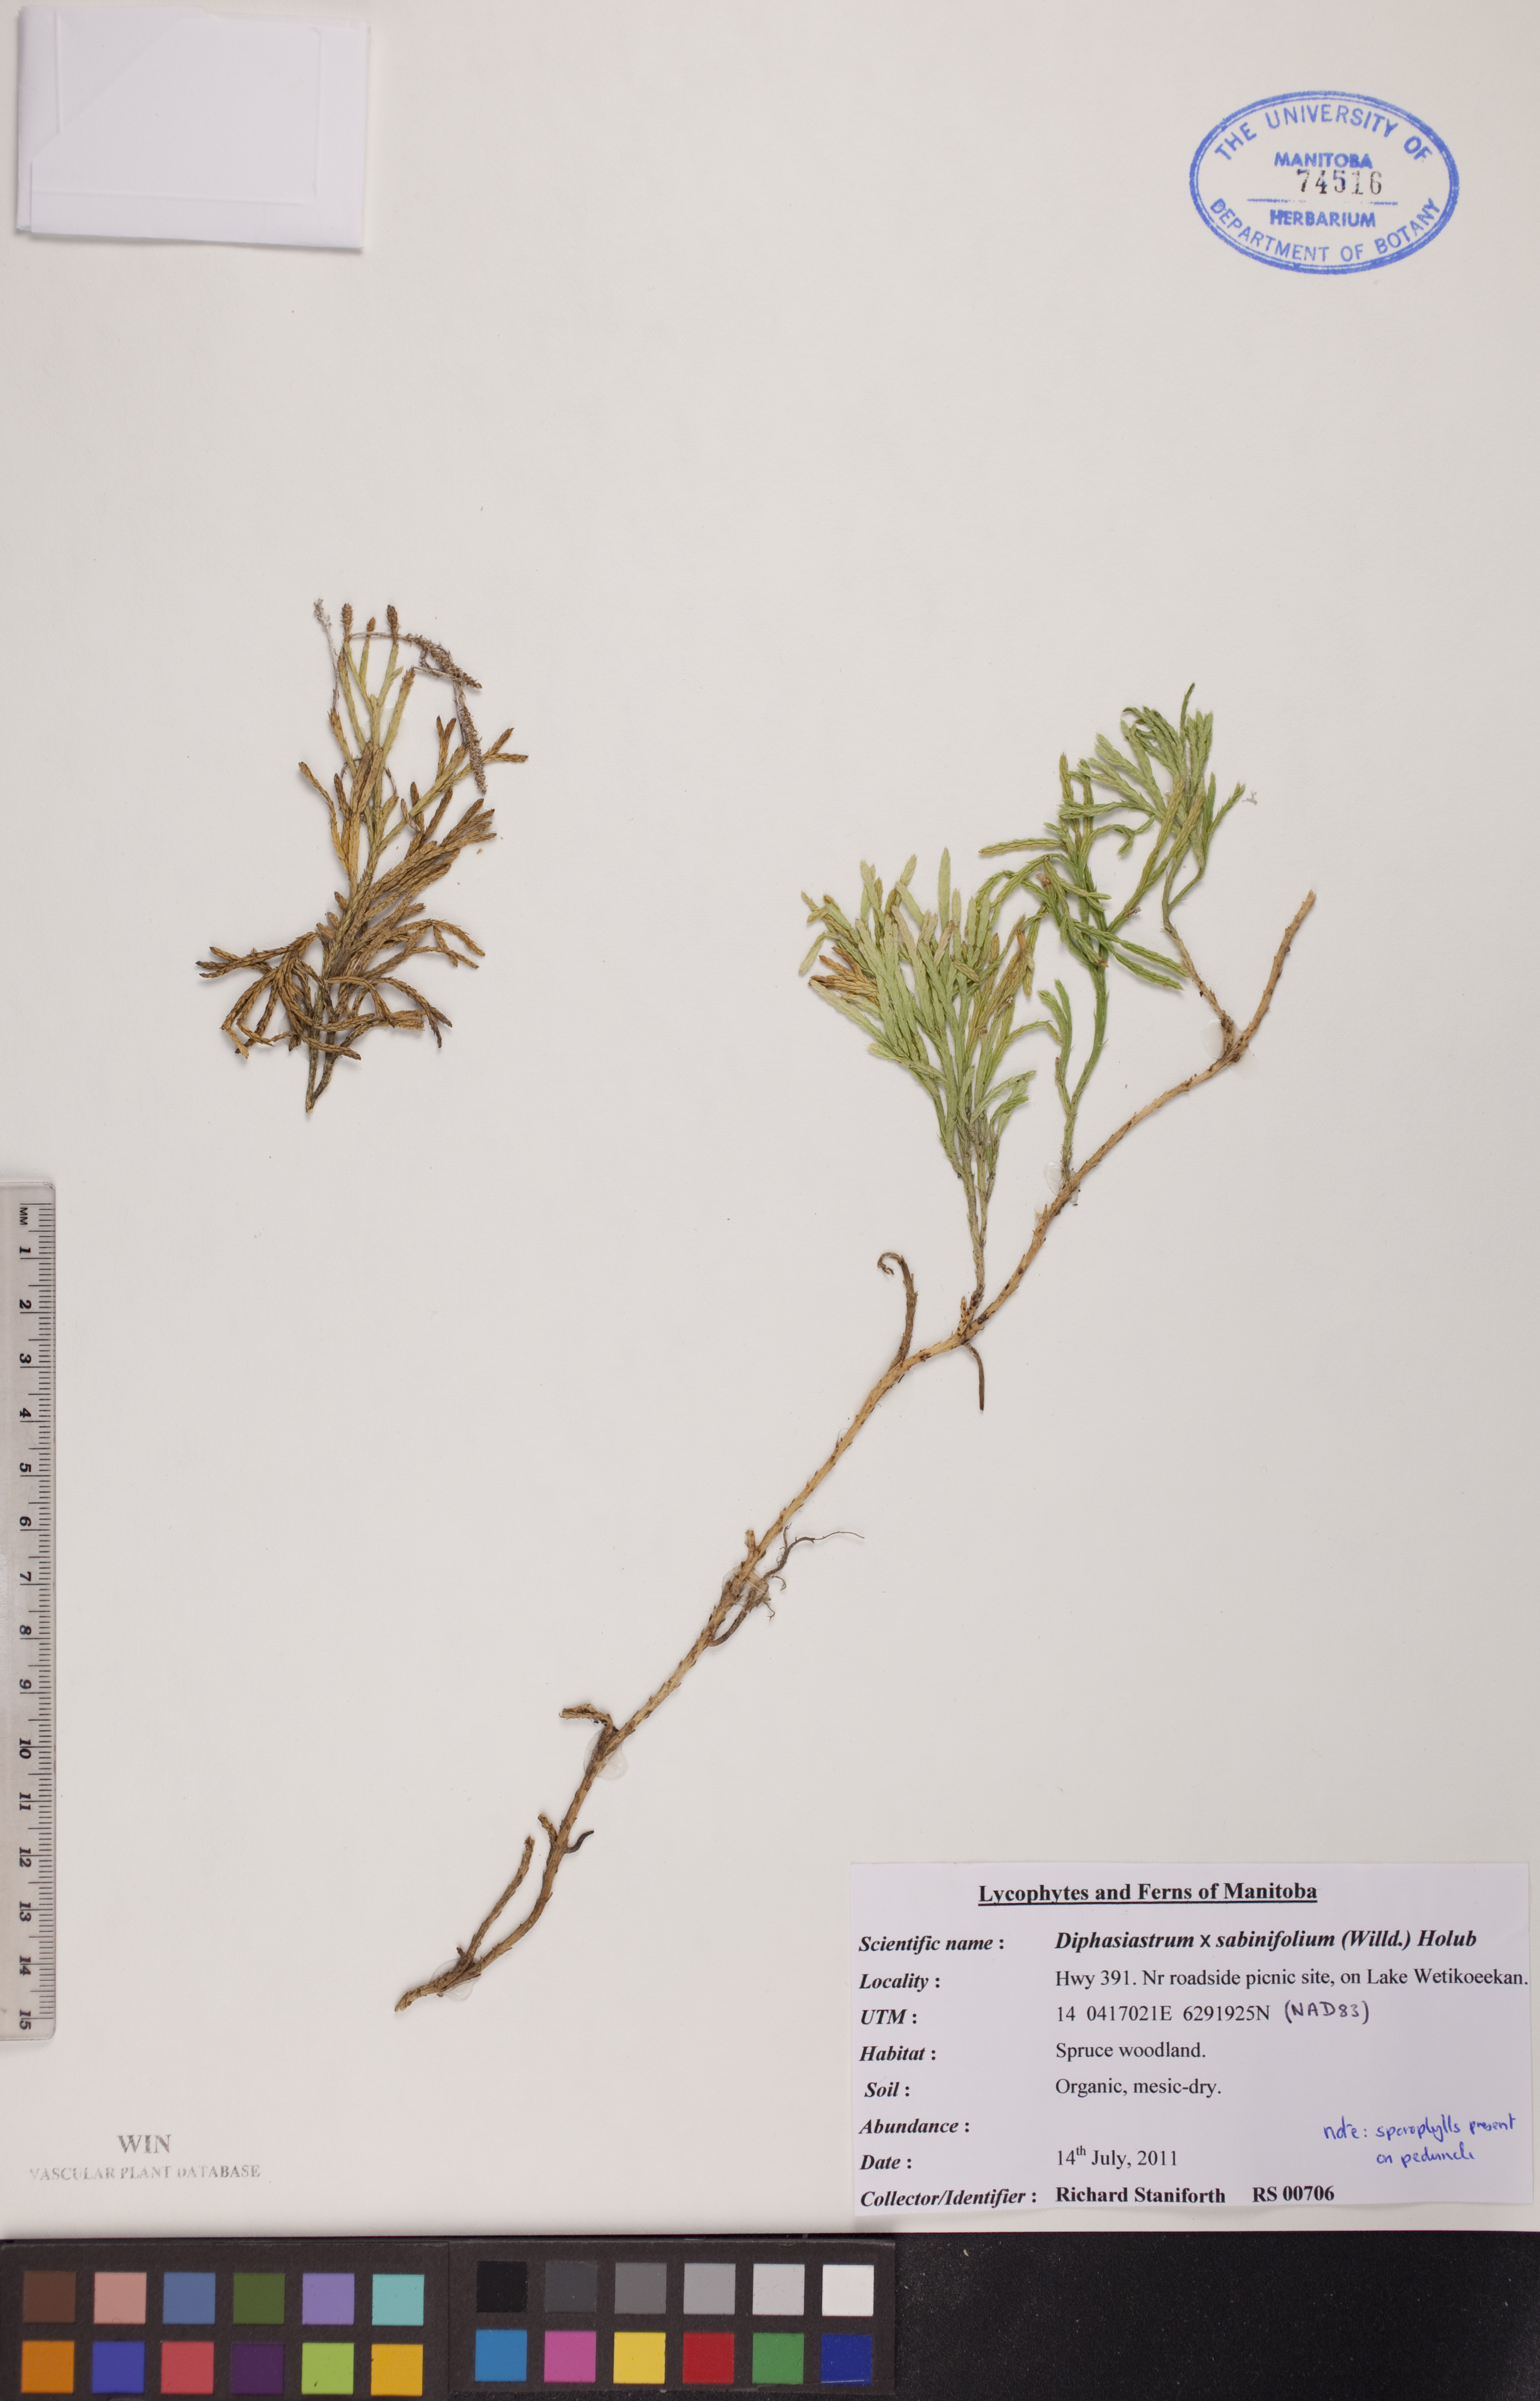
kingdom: Plantae
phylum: Tracheophyta
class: Lycopodiopsida
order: Lycopodiales
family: Lycopodiaceae
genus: Diphasiastrum
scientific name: Diphasiastrum sabinifolium
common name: Juniper clubmoss
